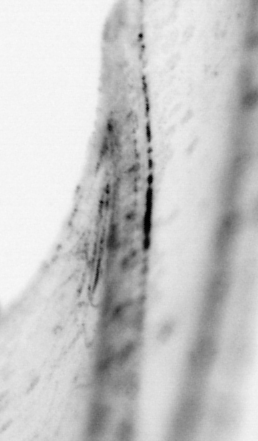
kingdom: Animalia
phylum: Chordata
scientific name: Chordata
